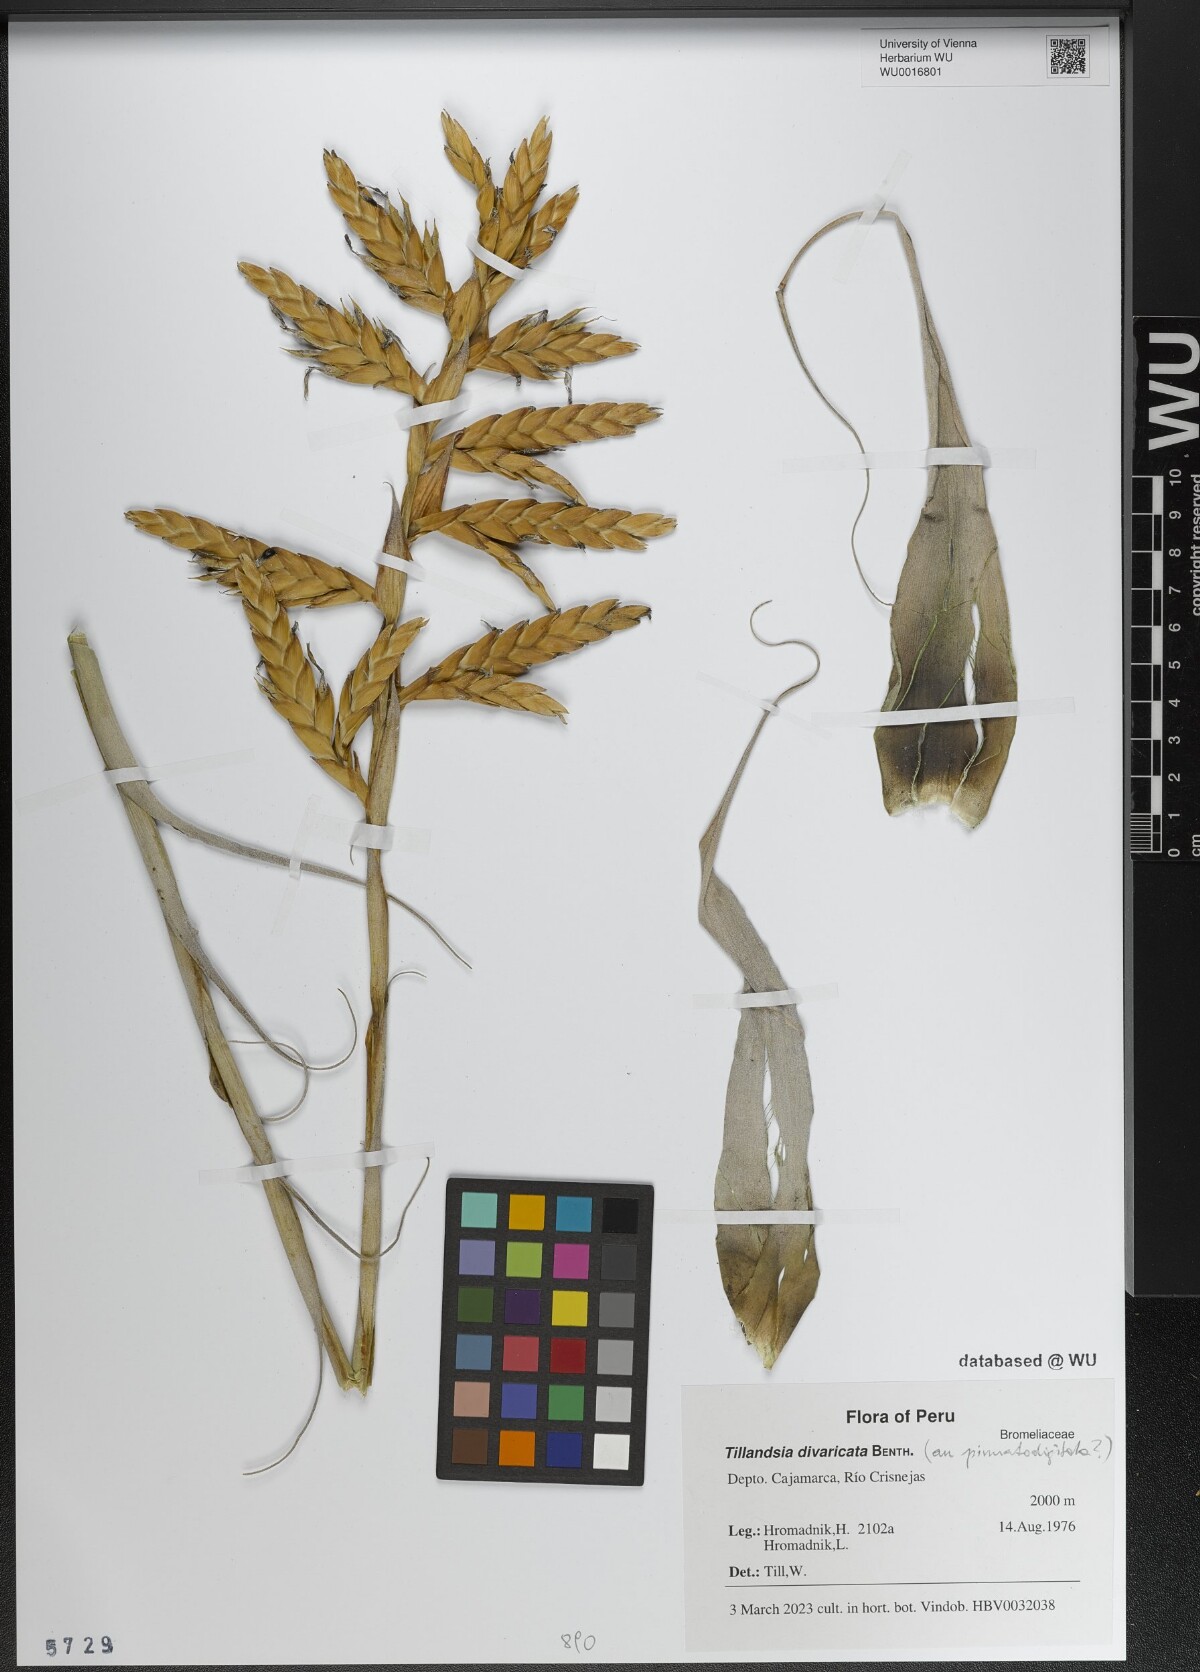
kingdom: Plantae
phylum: Tracheophyta
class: Liliopsida
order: Poales
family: Bromeliaceae
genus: Tillandsia
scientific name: Tillandsia latifolia
